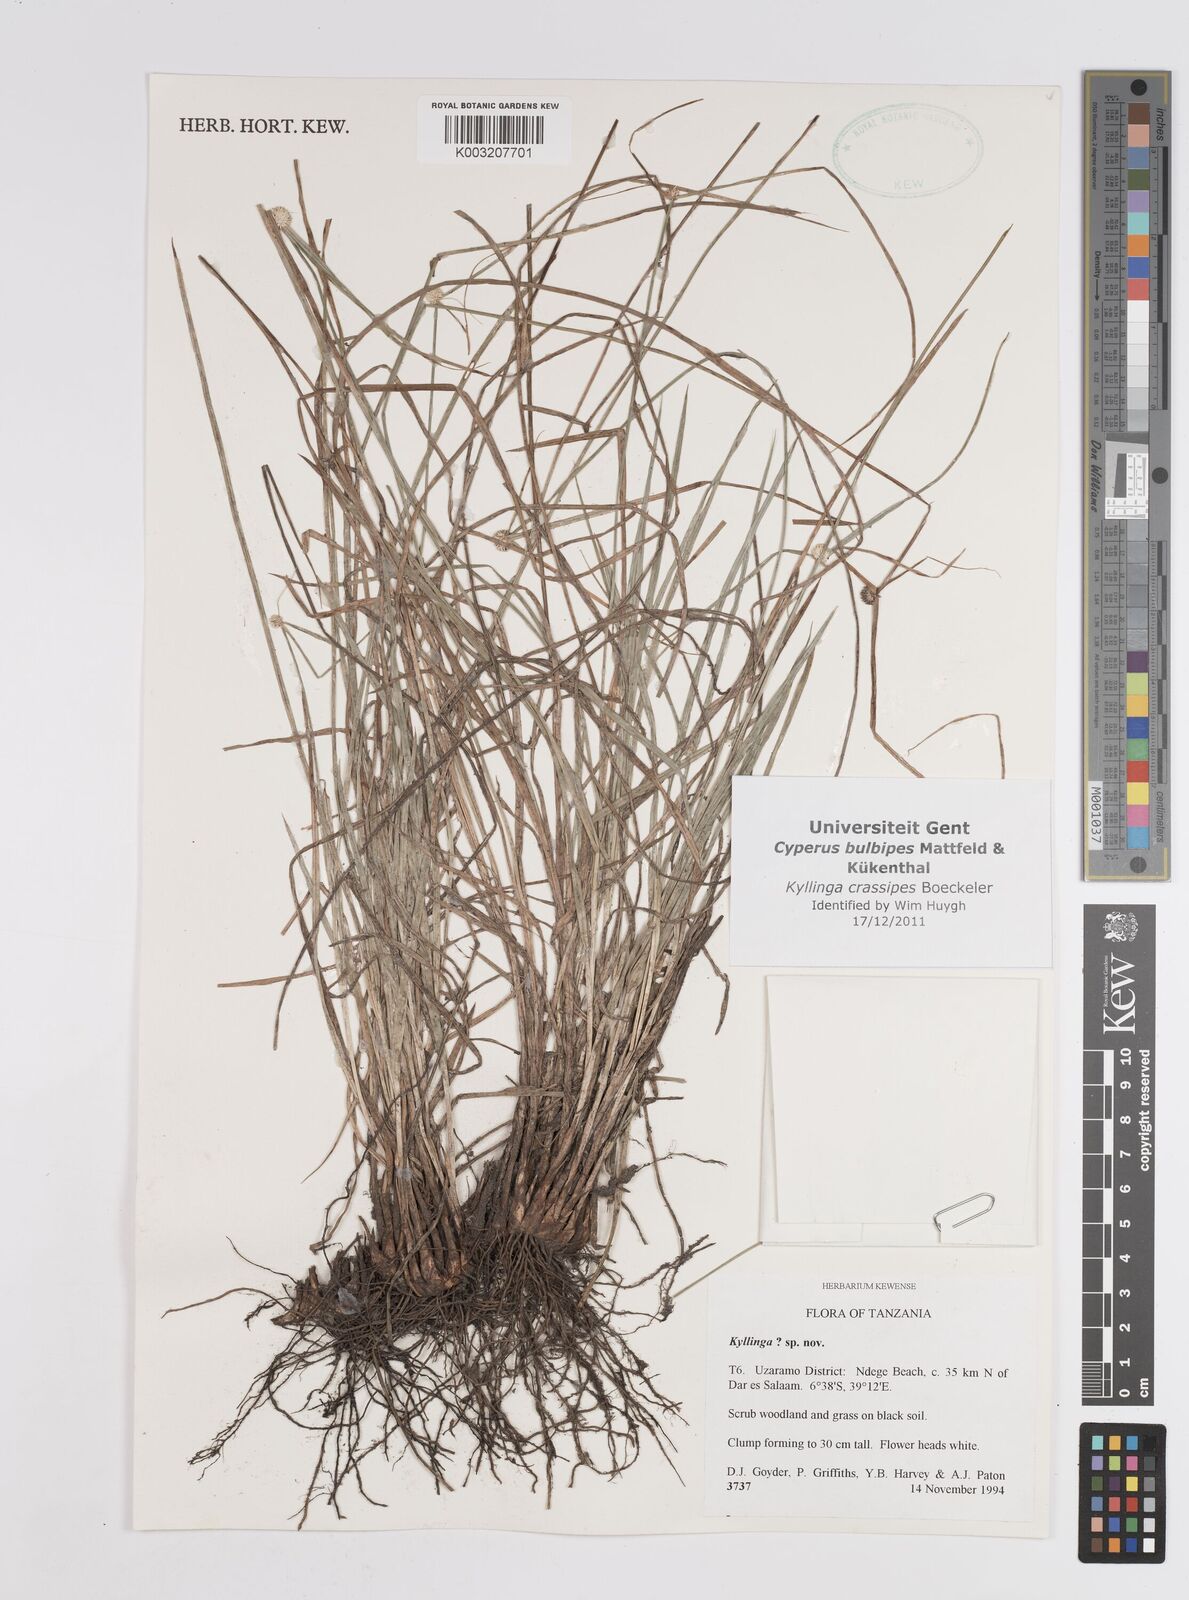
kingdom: Plantae
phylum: Tracheophyta
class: Liliopsida
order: Poales
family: Cyperaceae
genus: Cyperus
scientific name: Cyperus crassipes
